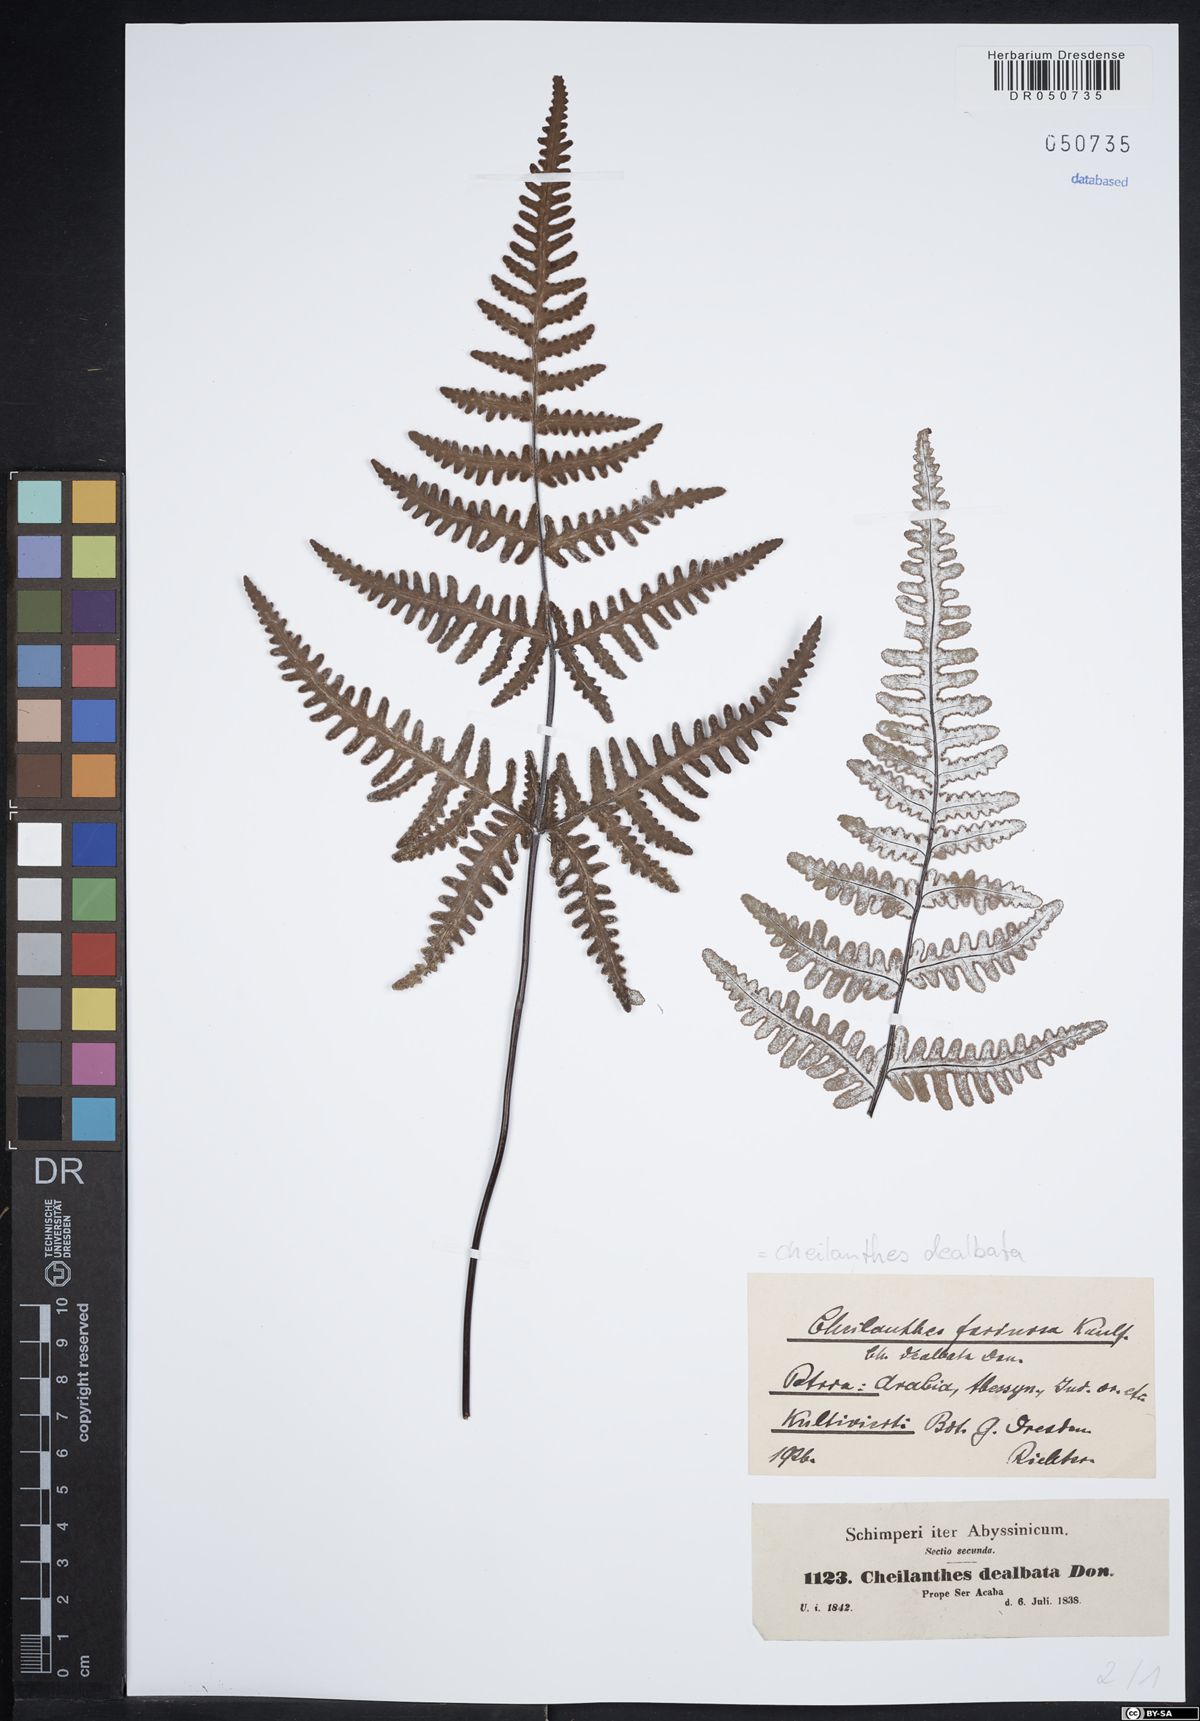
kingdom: Plantae
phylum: Tracheophyta
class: Polypodiopsida
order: Polypodiales
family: Pteridaceae
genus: Argyrochosma
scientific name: Argyrochosma dealbata
